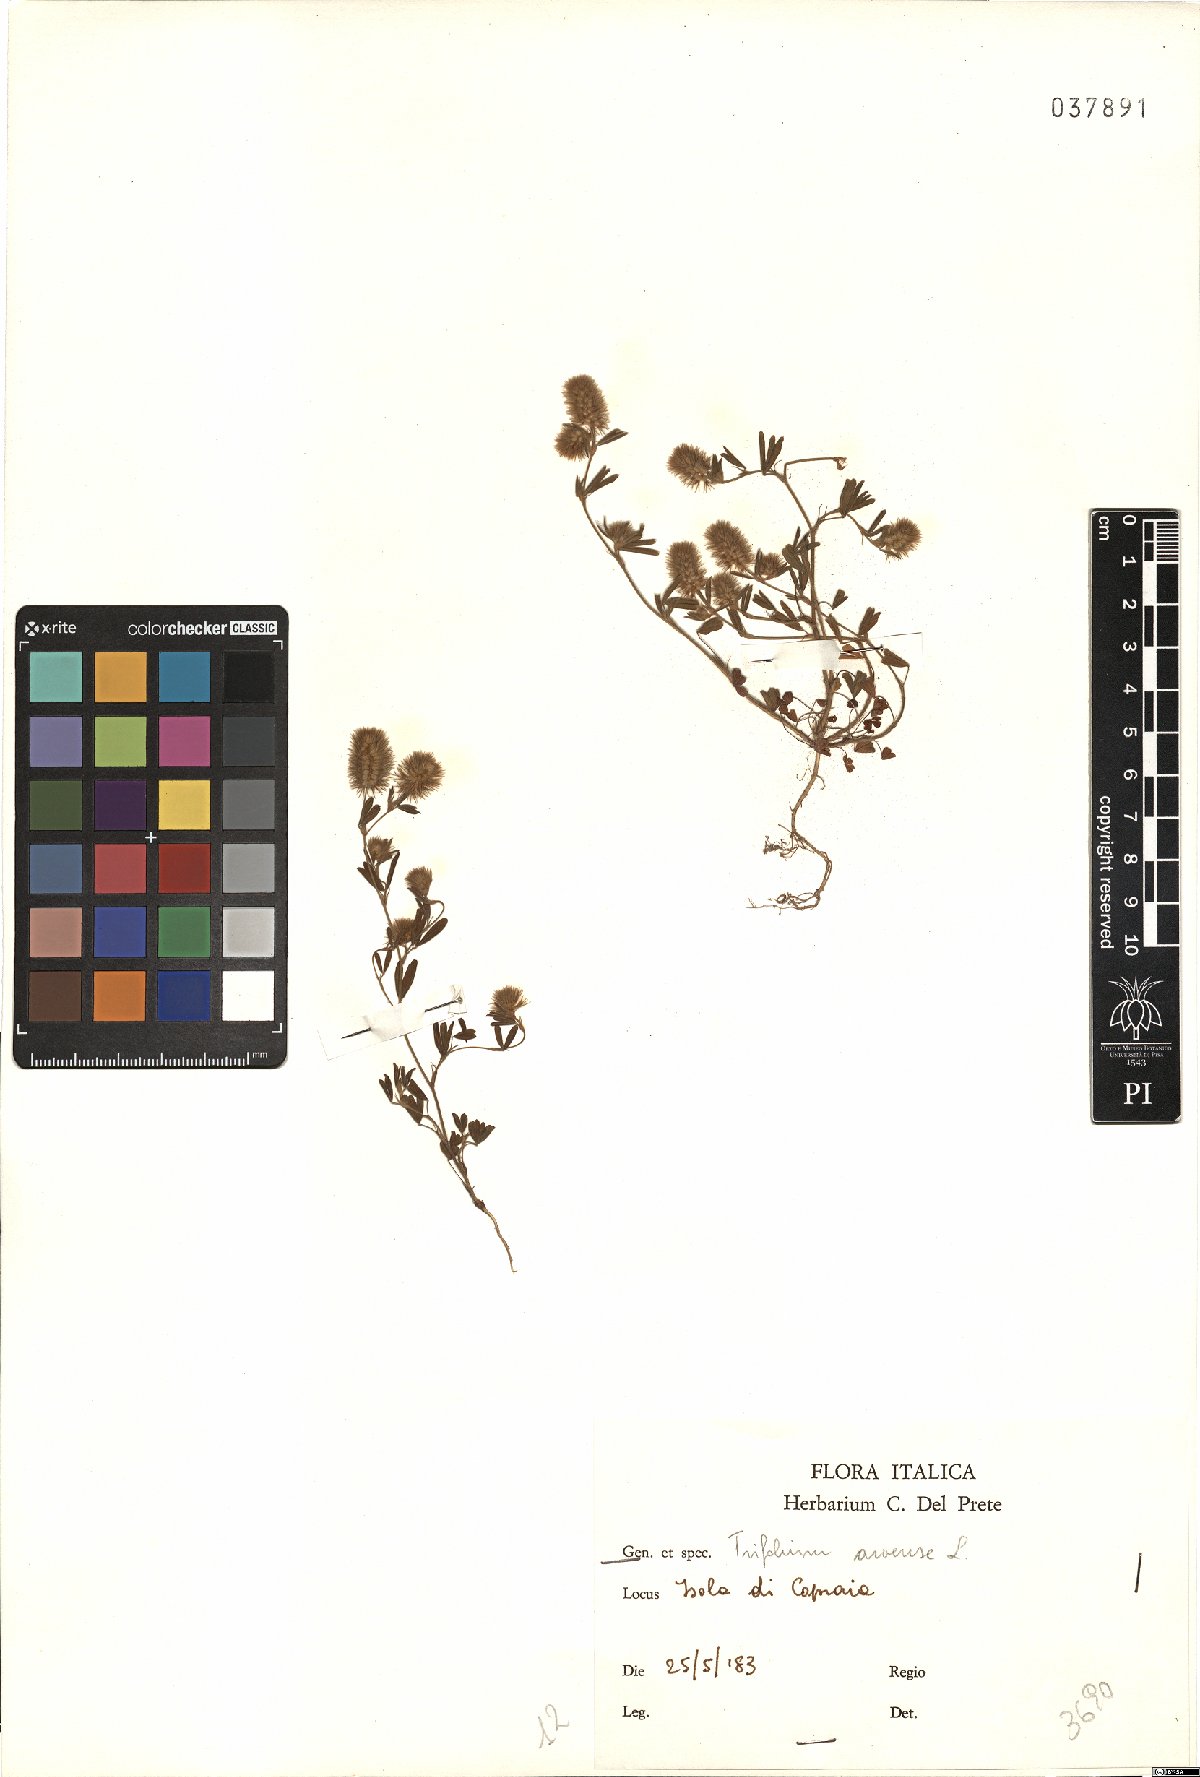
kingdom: Plantae
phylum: Tracheophyta
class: Magnoliopsida
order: Fabales
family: Fabaceae
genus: Trifolium
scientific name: Trifolium arvense
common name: Hare's-foot clover
